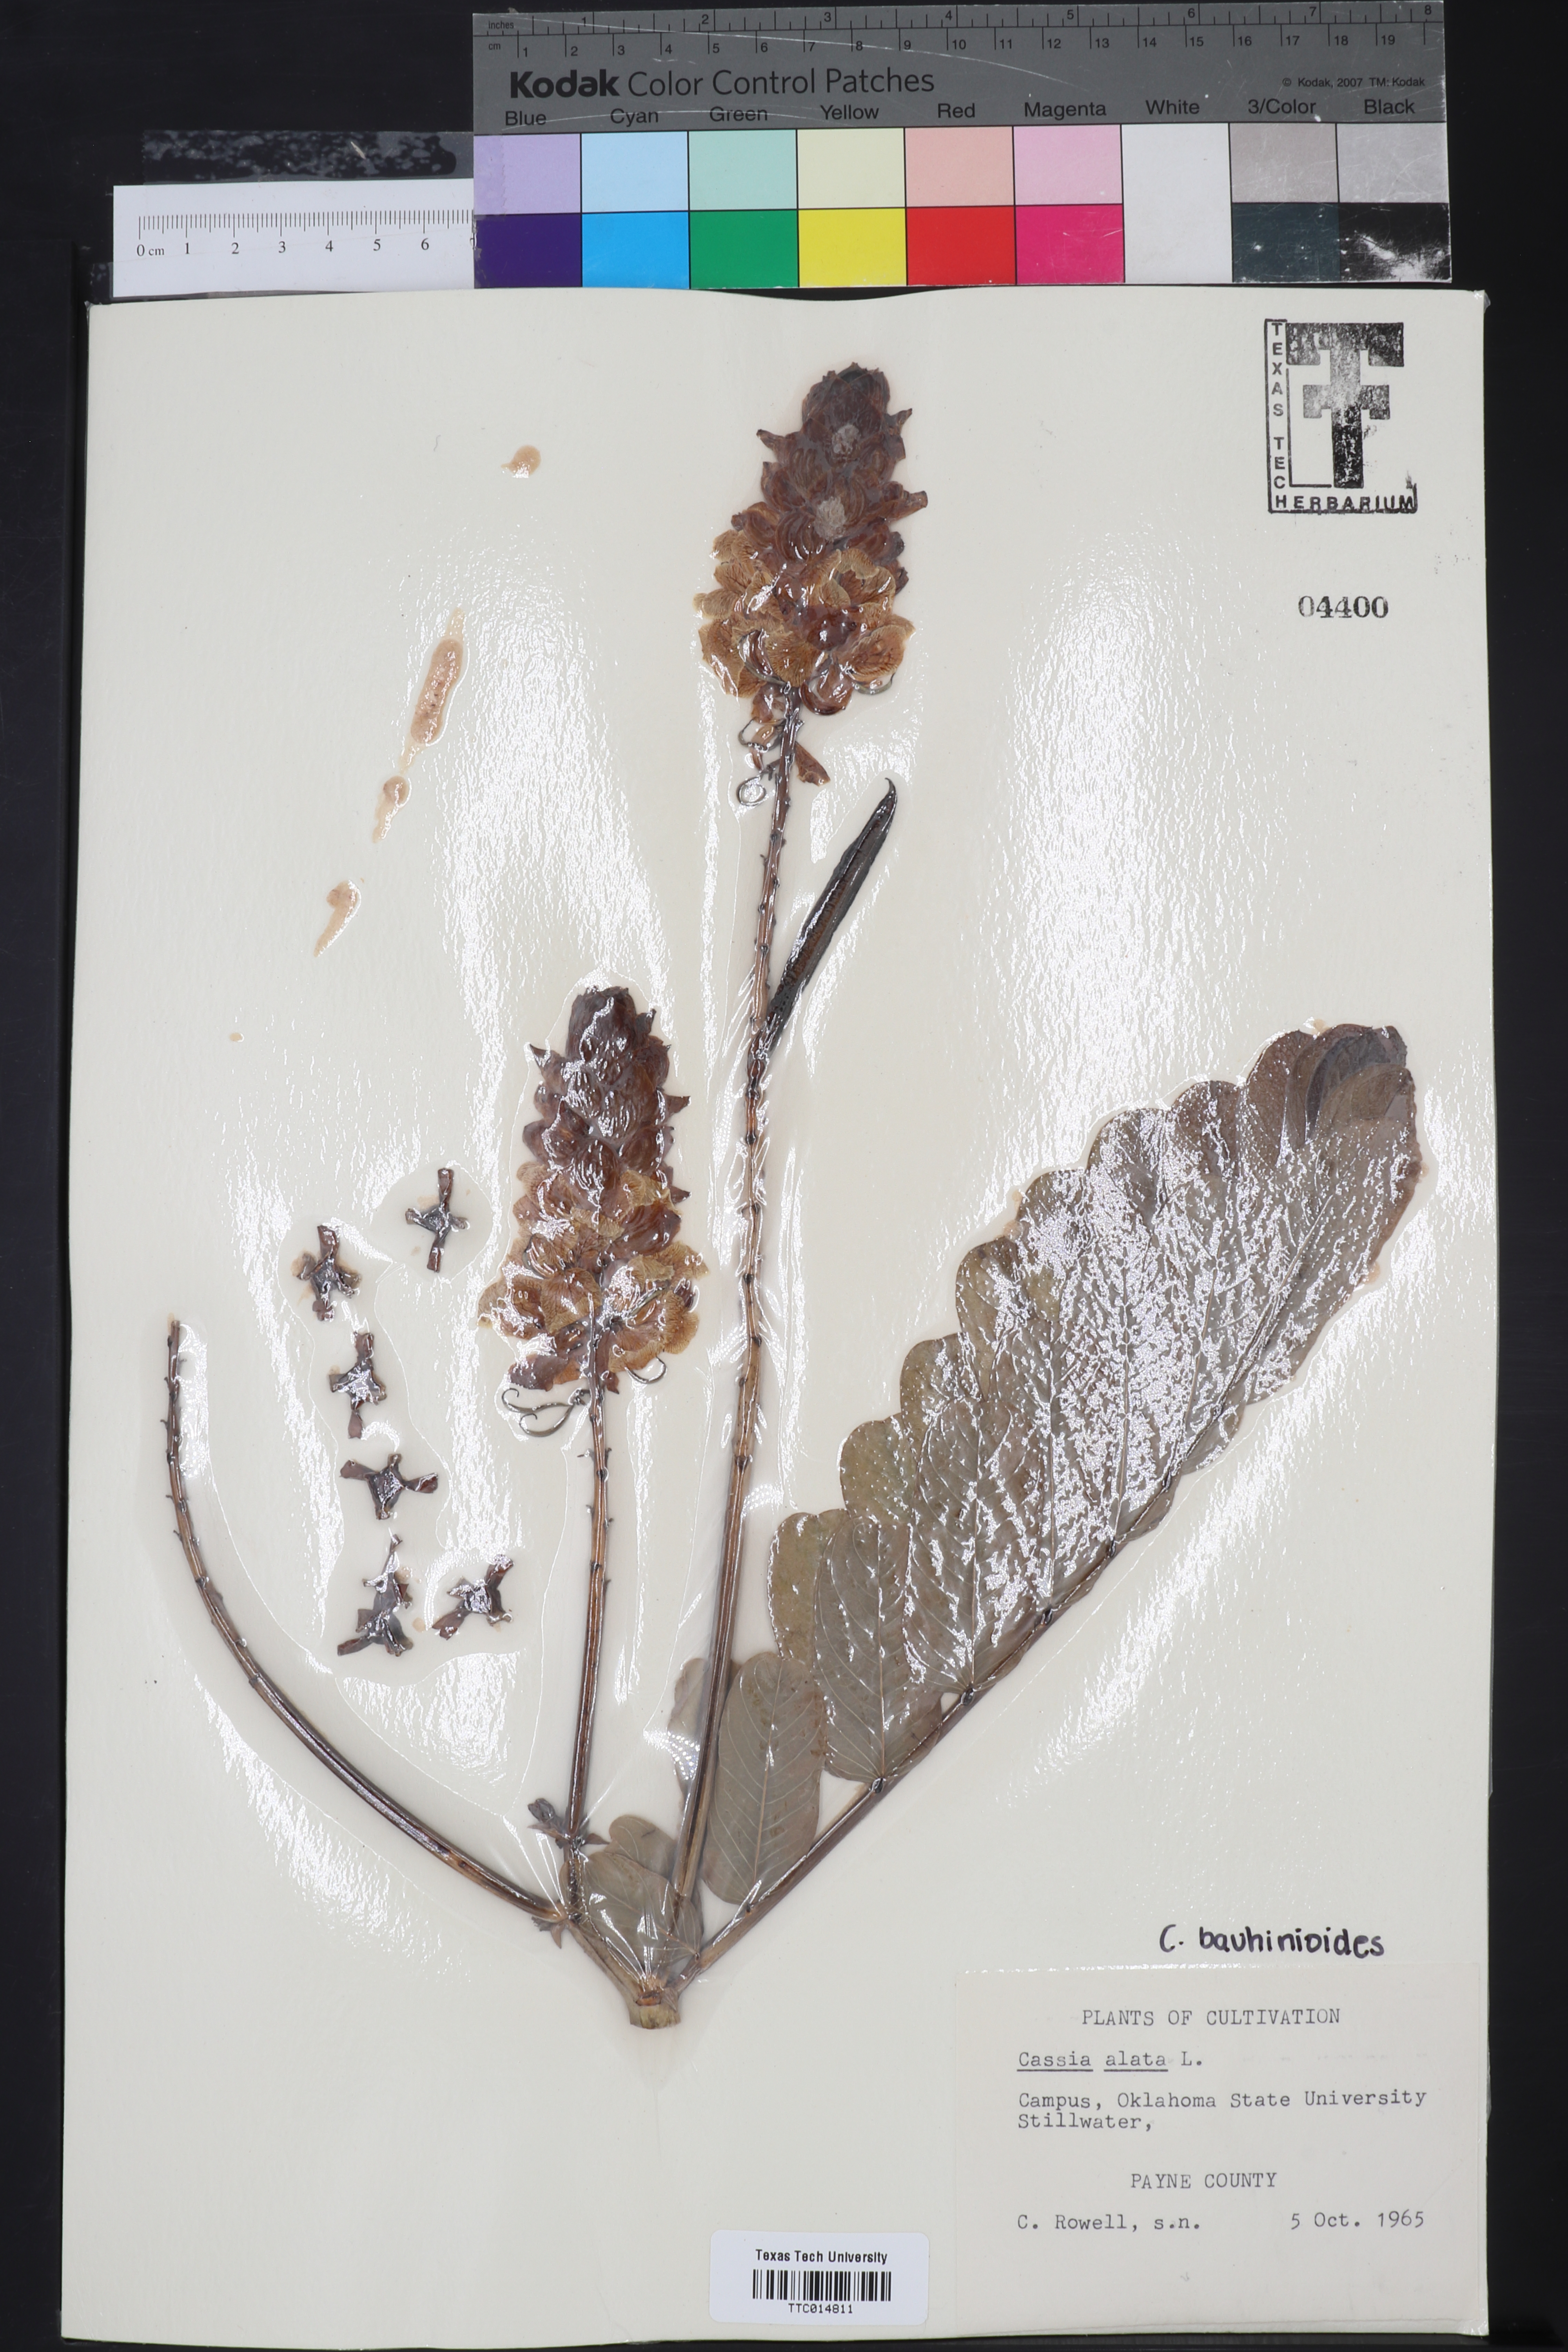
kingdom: Plantae
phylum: Tracheophyta
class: Magnoliopsida
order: Fabales
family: Fabaceae
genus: Senna
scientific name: Senna alata
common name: Emperor's candlesticks
